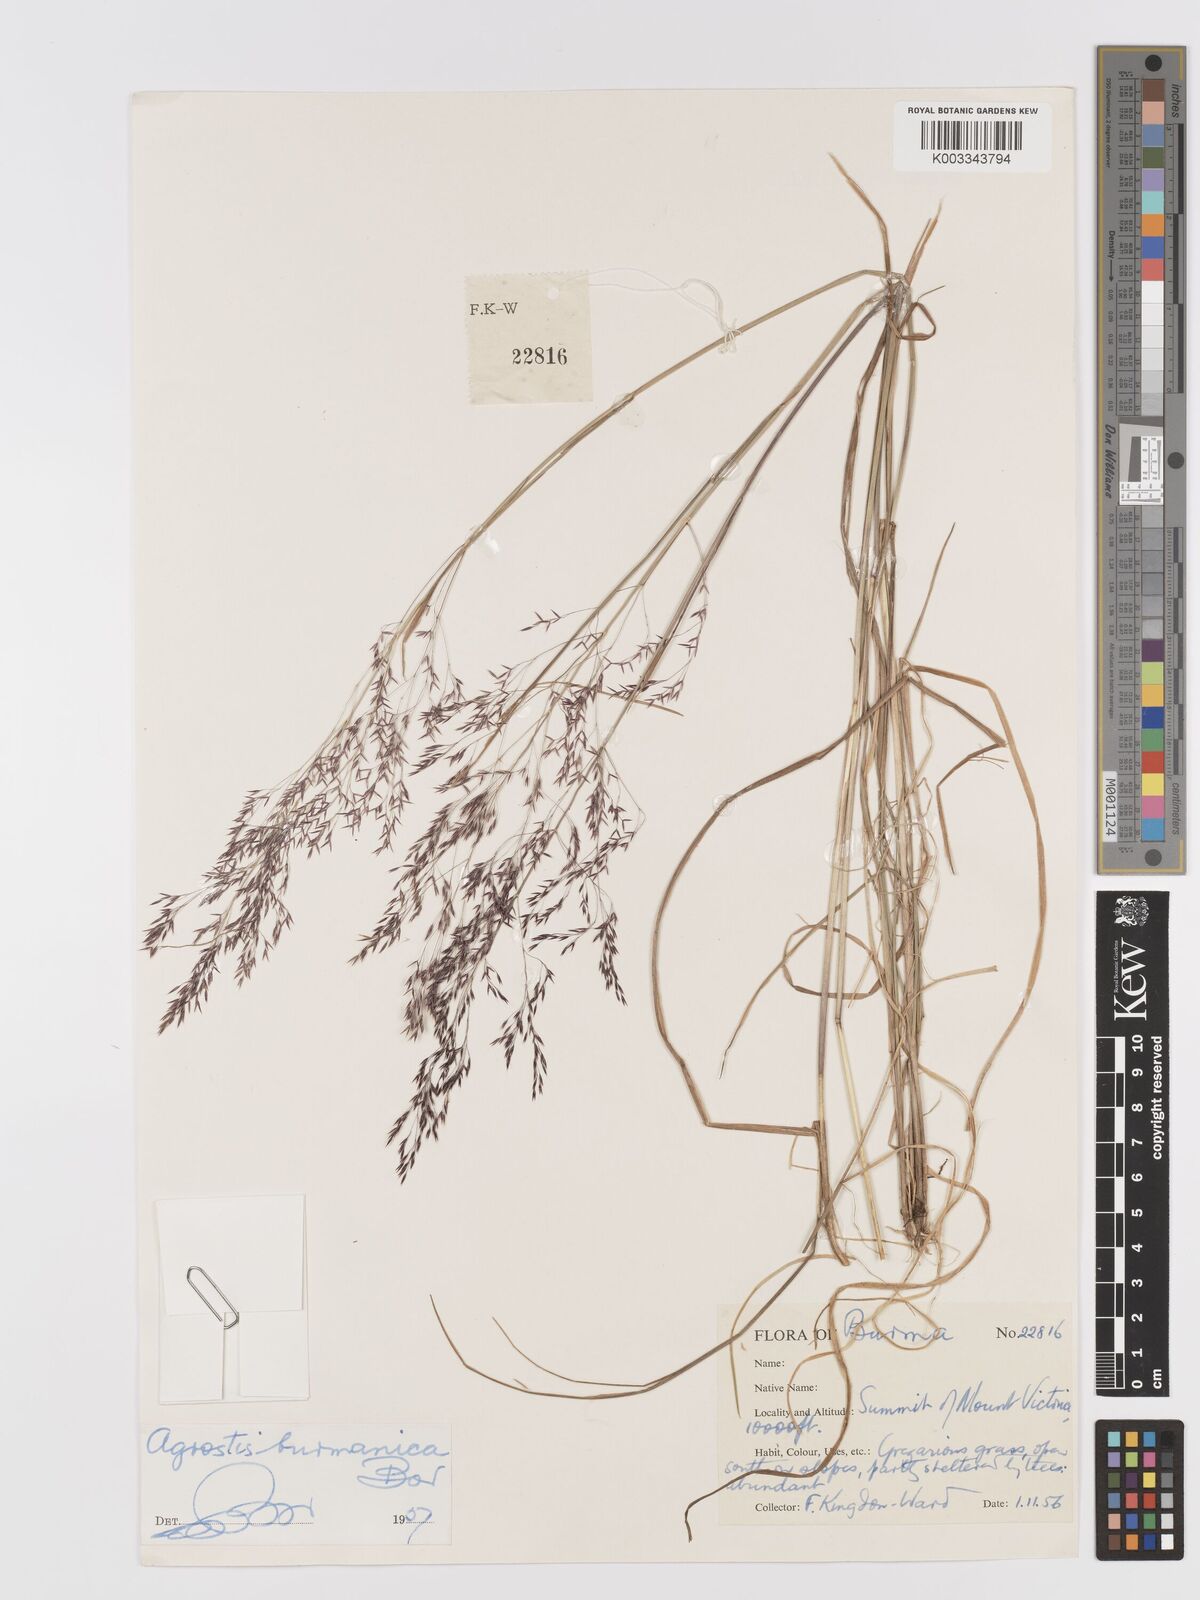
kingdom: Plantae
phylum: Tracheophyta
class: Liliopsida
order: Poales
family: Poaceae
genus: Agrostis
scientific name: Agrostis burmanica
